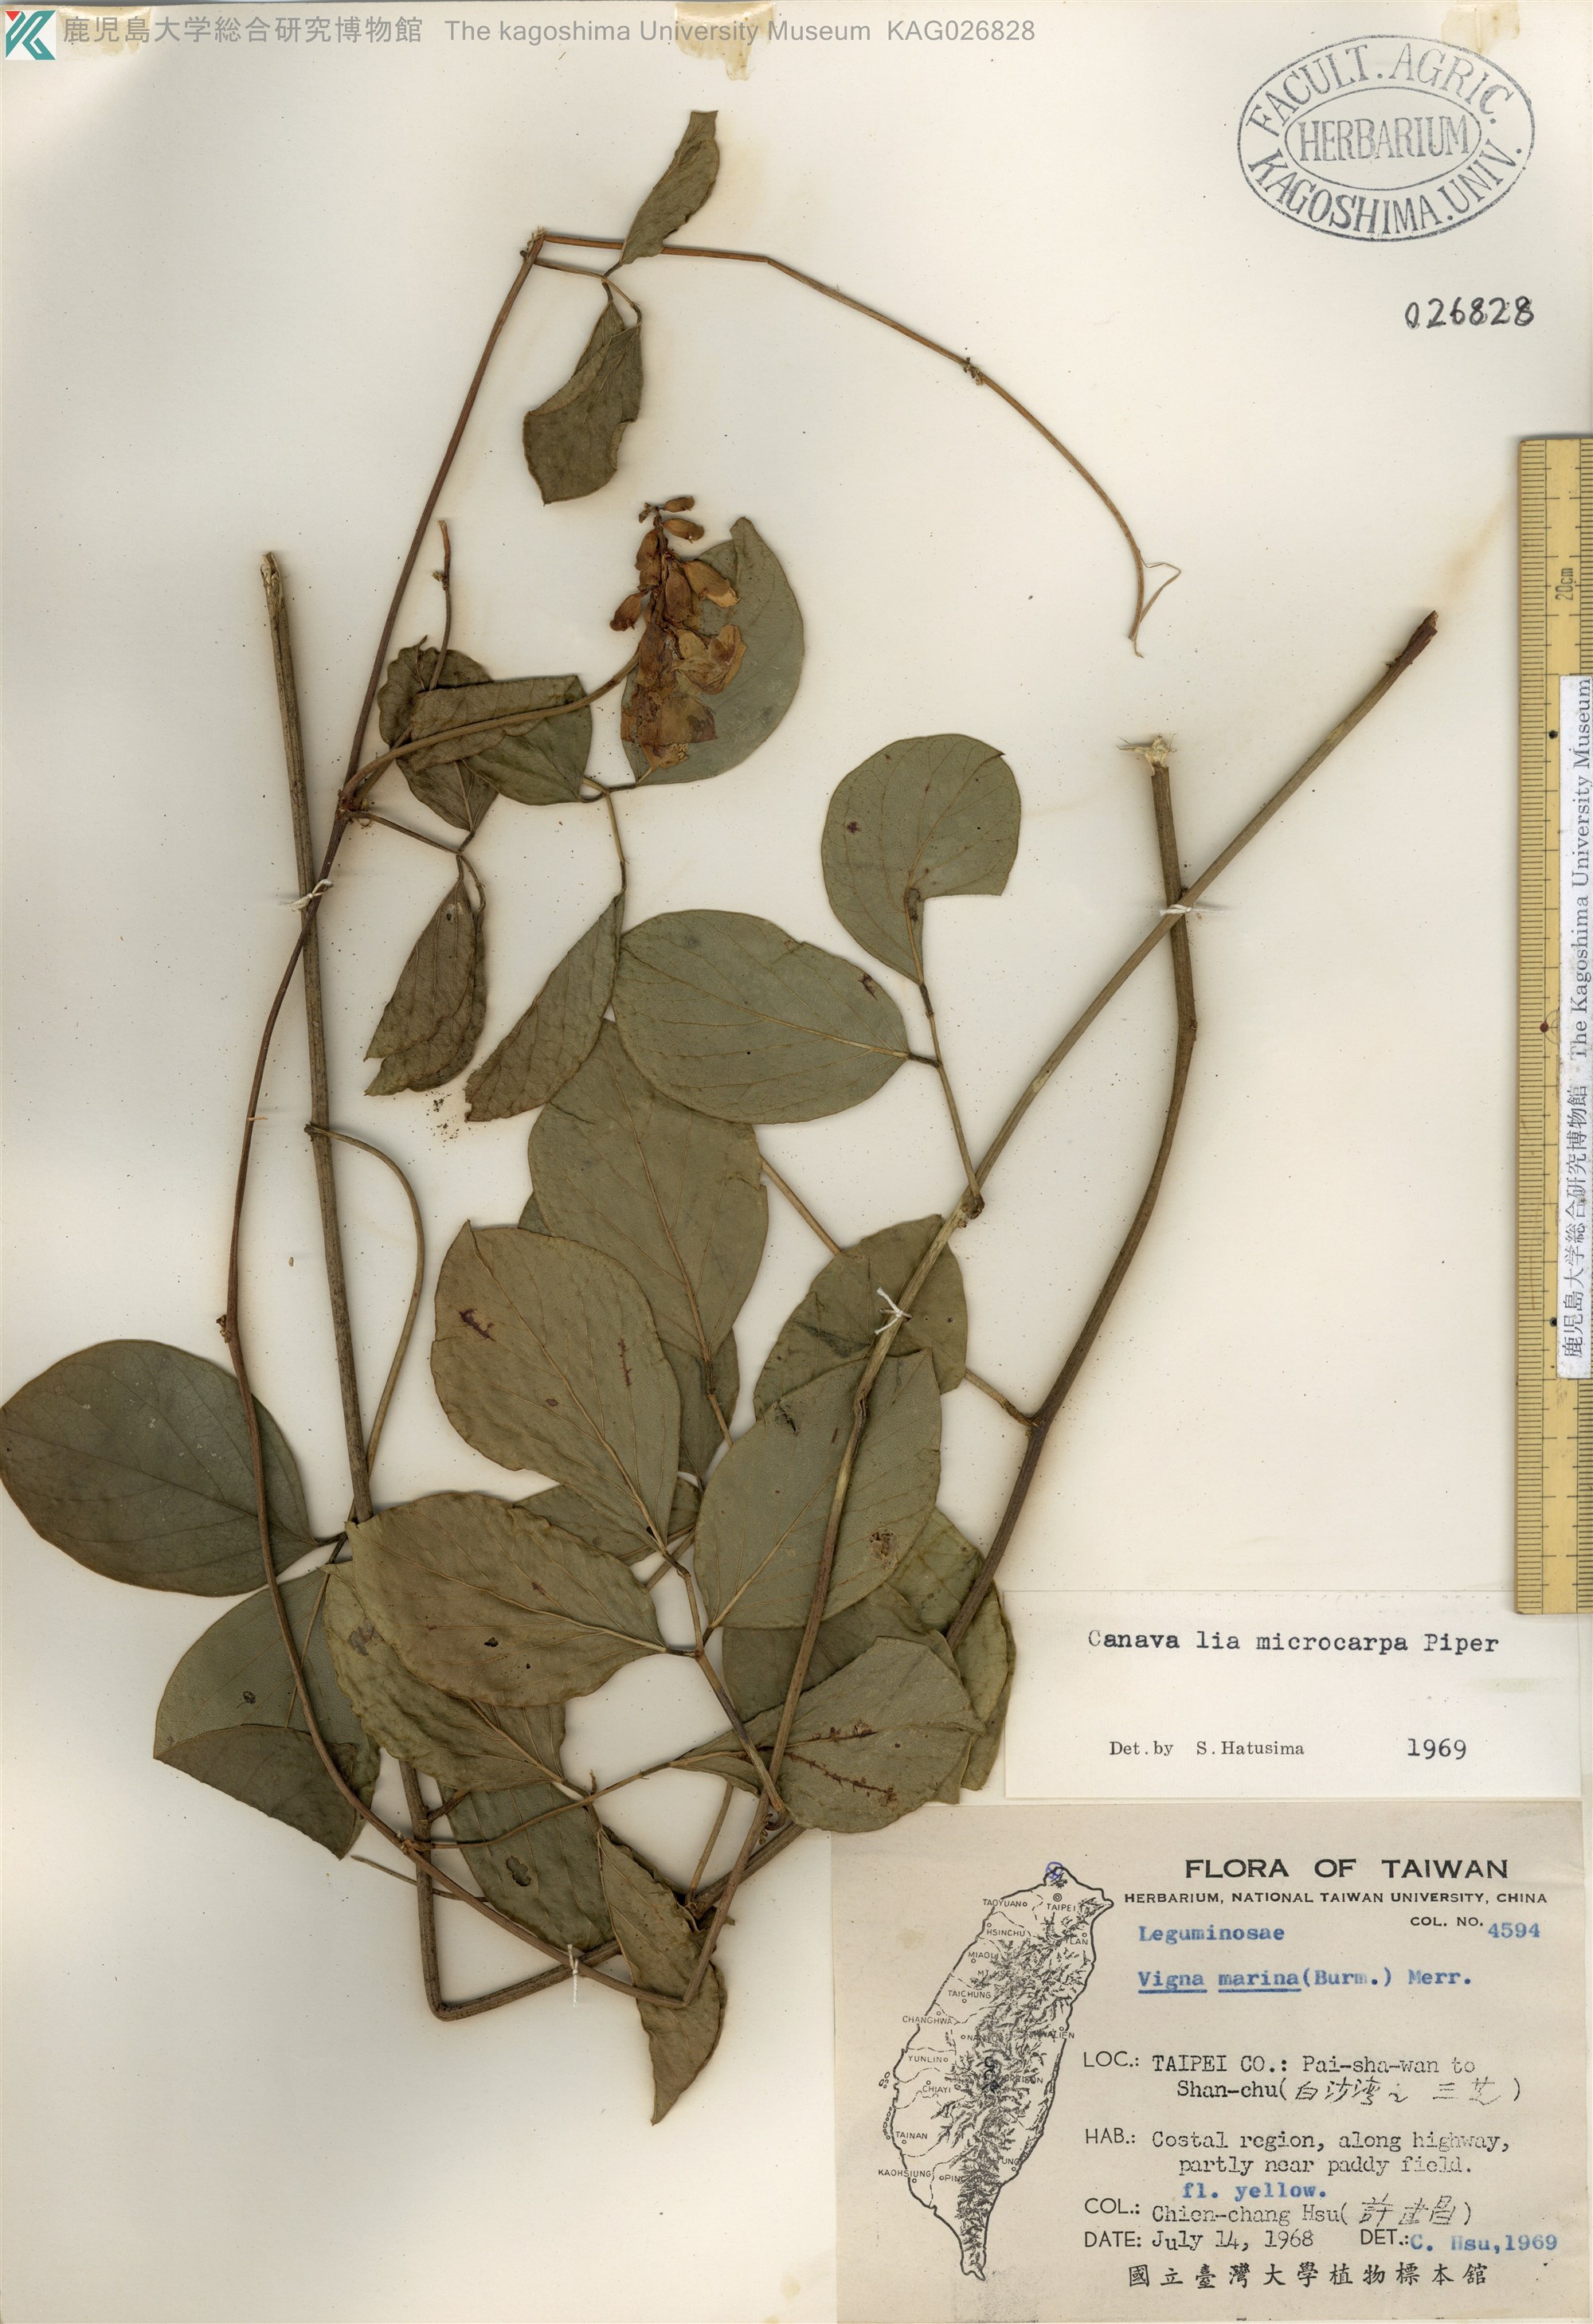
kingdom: Plantae
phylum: Tracheophyta
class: Magnoliopsida
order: Fabales
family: Fabaceae
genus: Canavalia
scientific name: Canavalia cathartica
